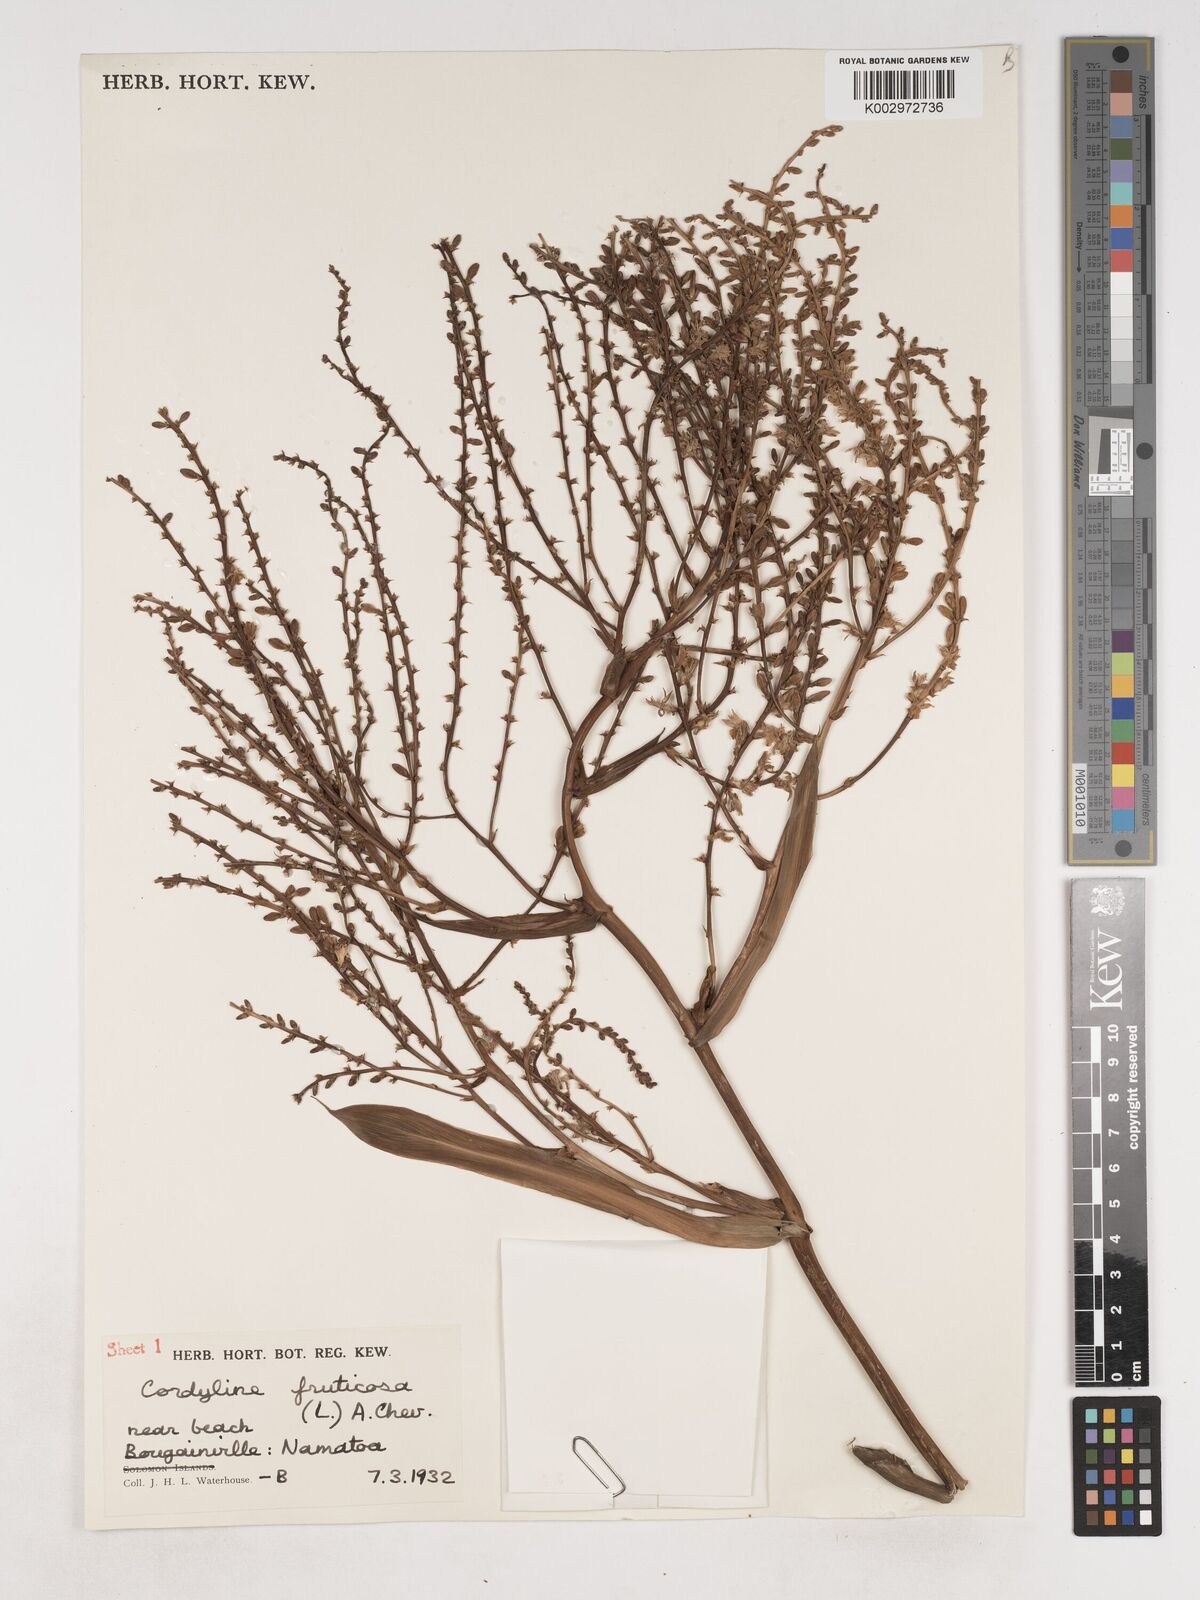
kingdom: Plantae
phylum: Tracheophyta
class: Liliopsida
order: Asparagales
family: Asparagaceae
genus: Cordyline
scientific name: Cordyline fruticosa
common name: Good-luck-plant
